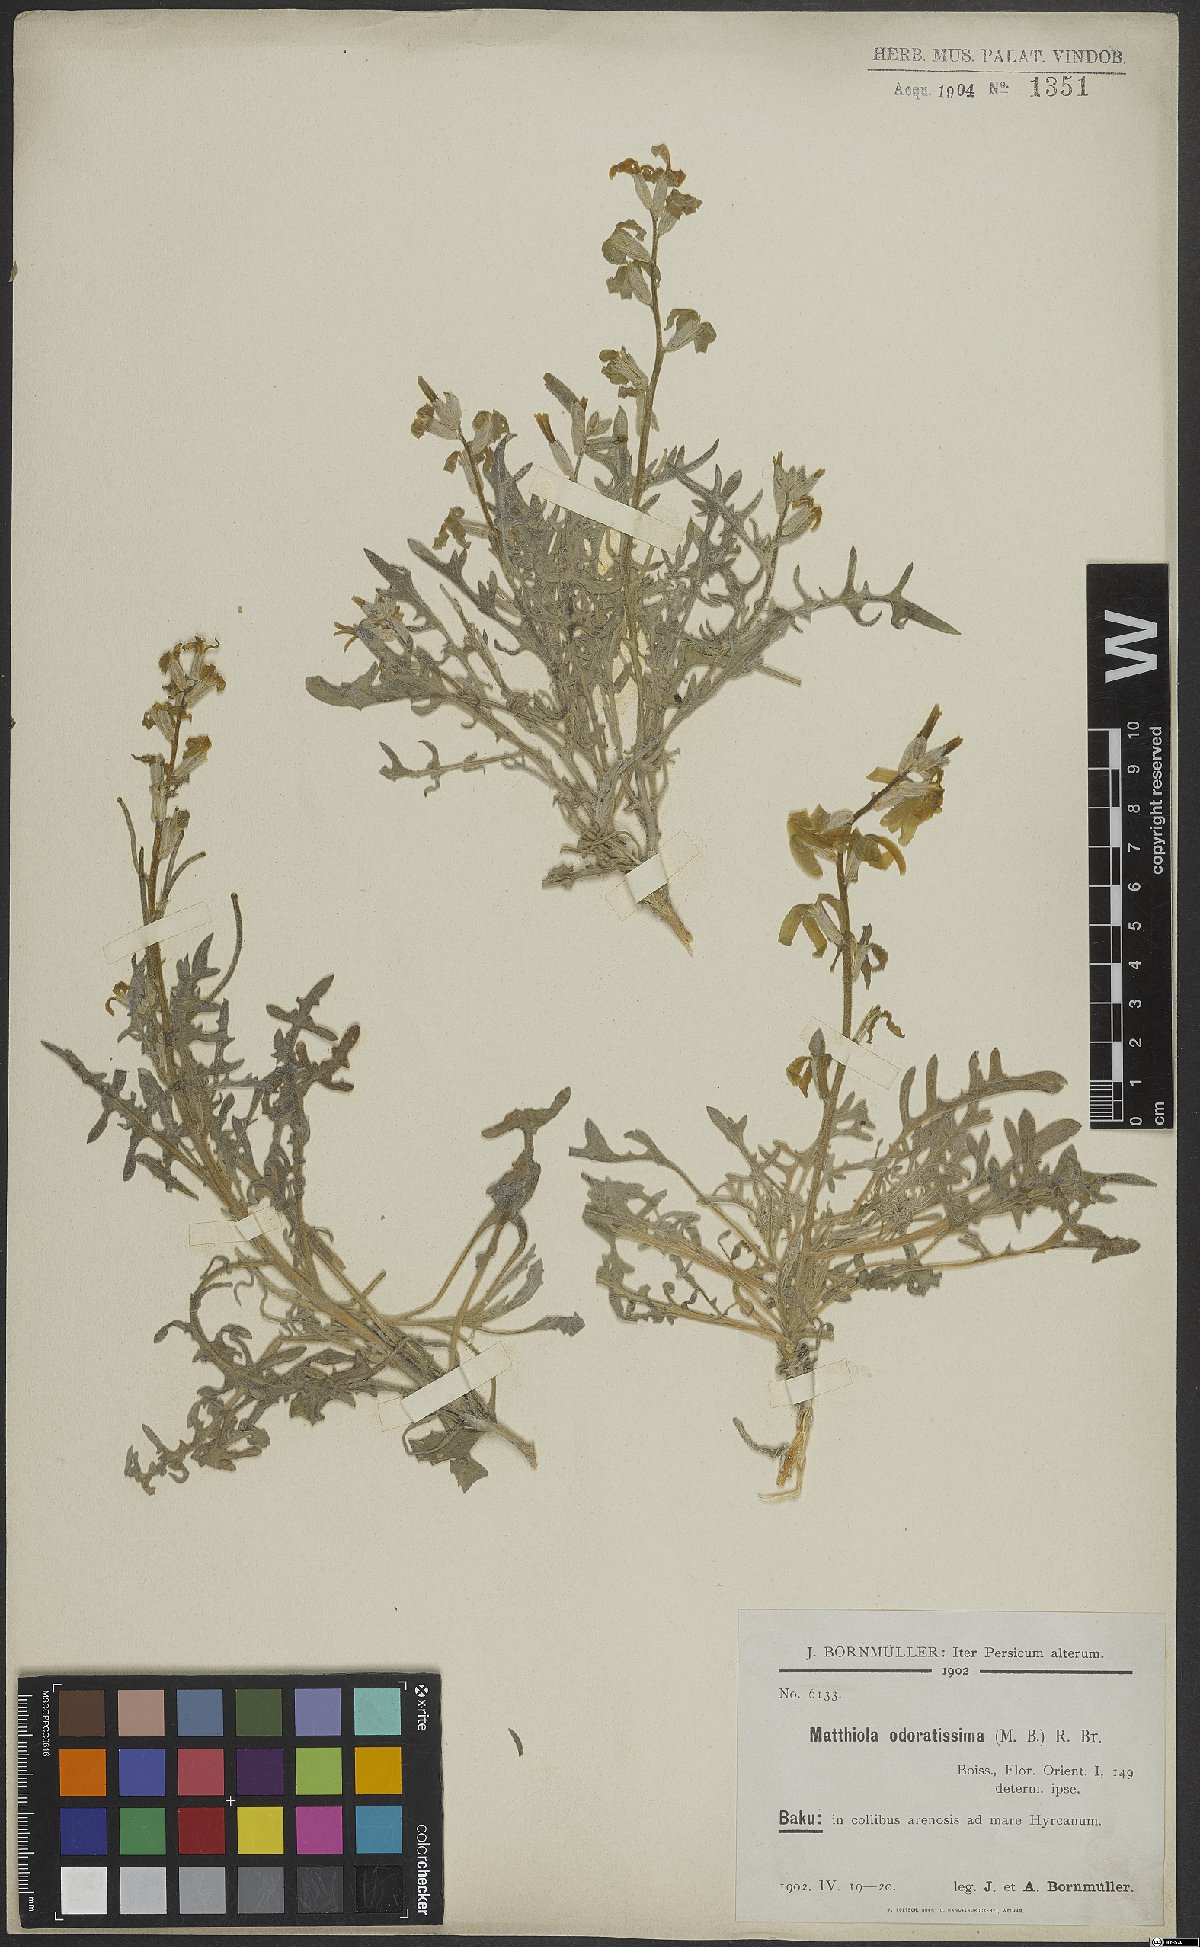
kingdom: Plantae
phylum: Tracheophyta
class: Magnoliopsida
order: Brassicales
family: Brassicaceae
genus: Matthiola
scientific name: Matthiola odoratissima
